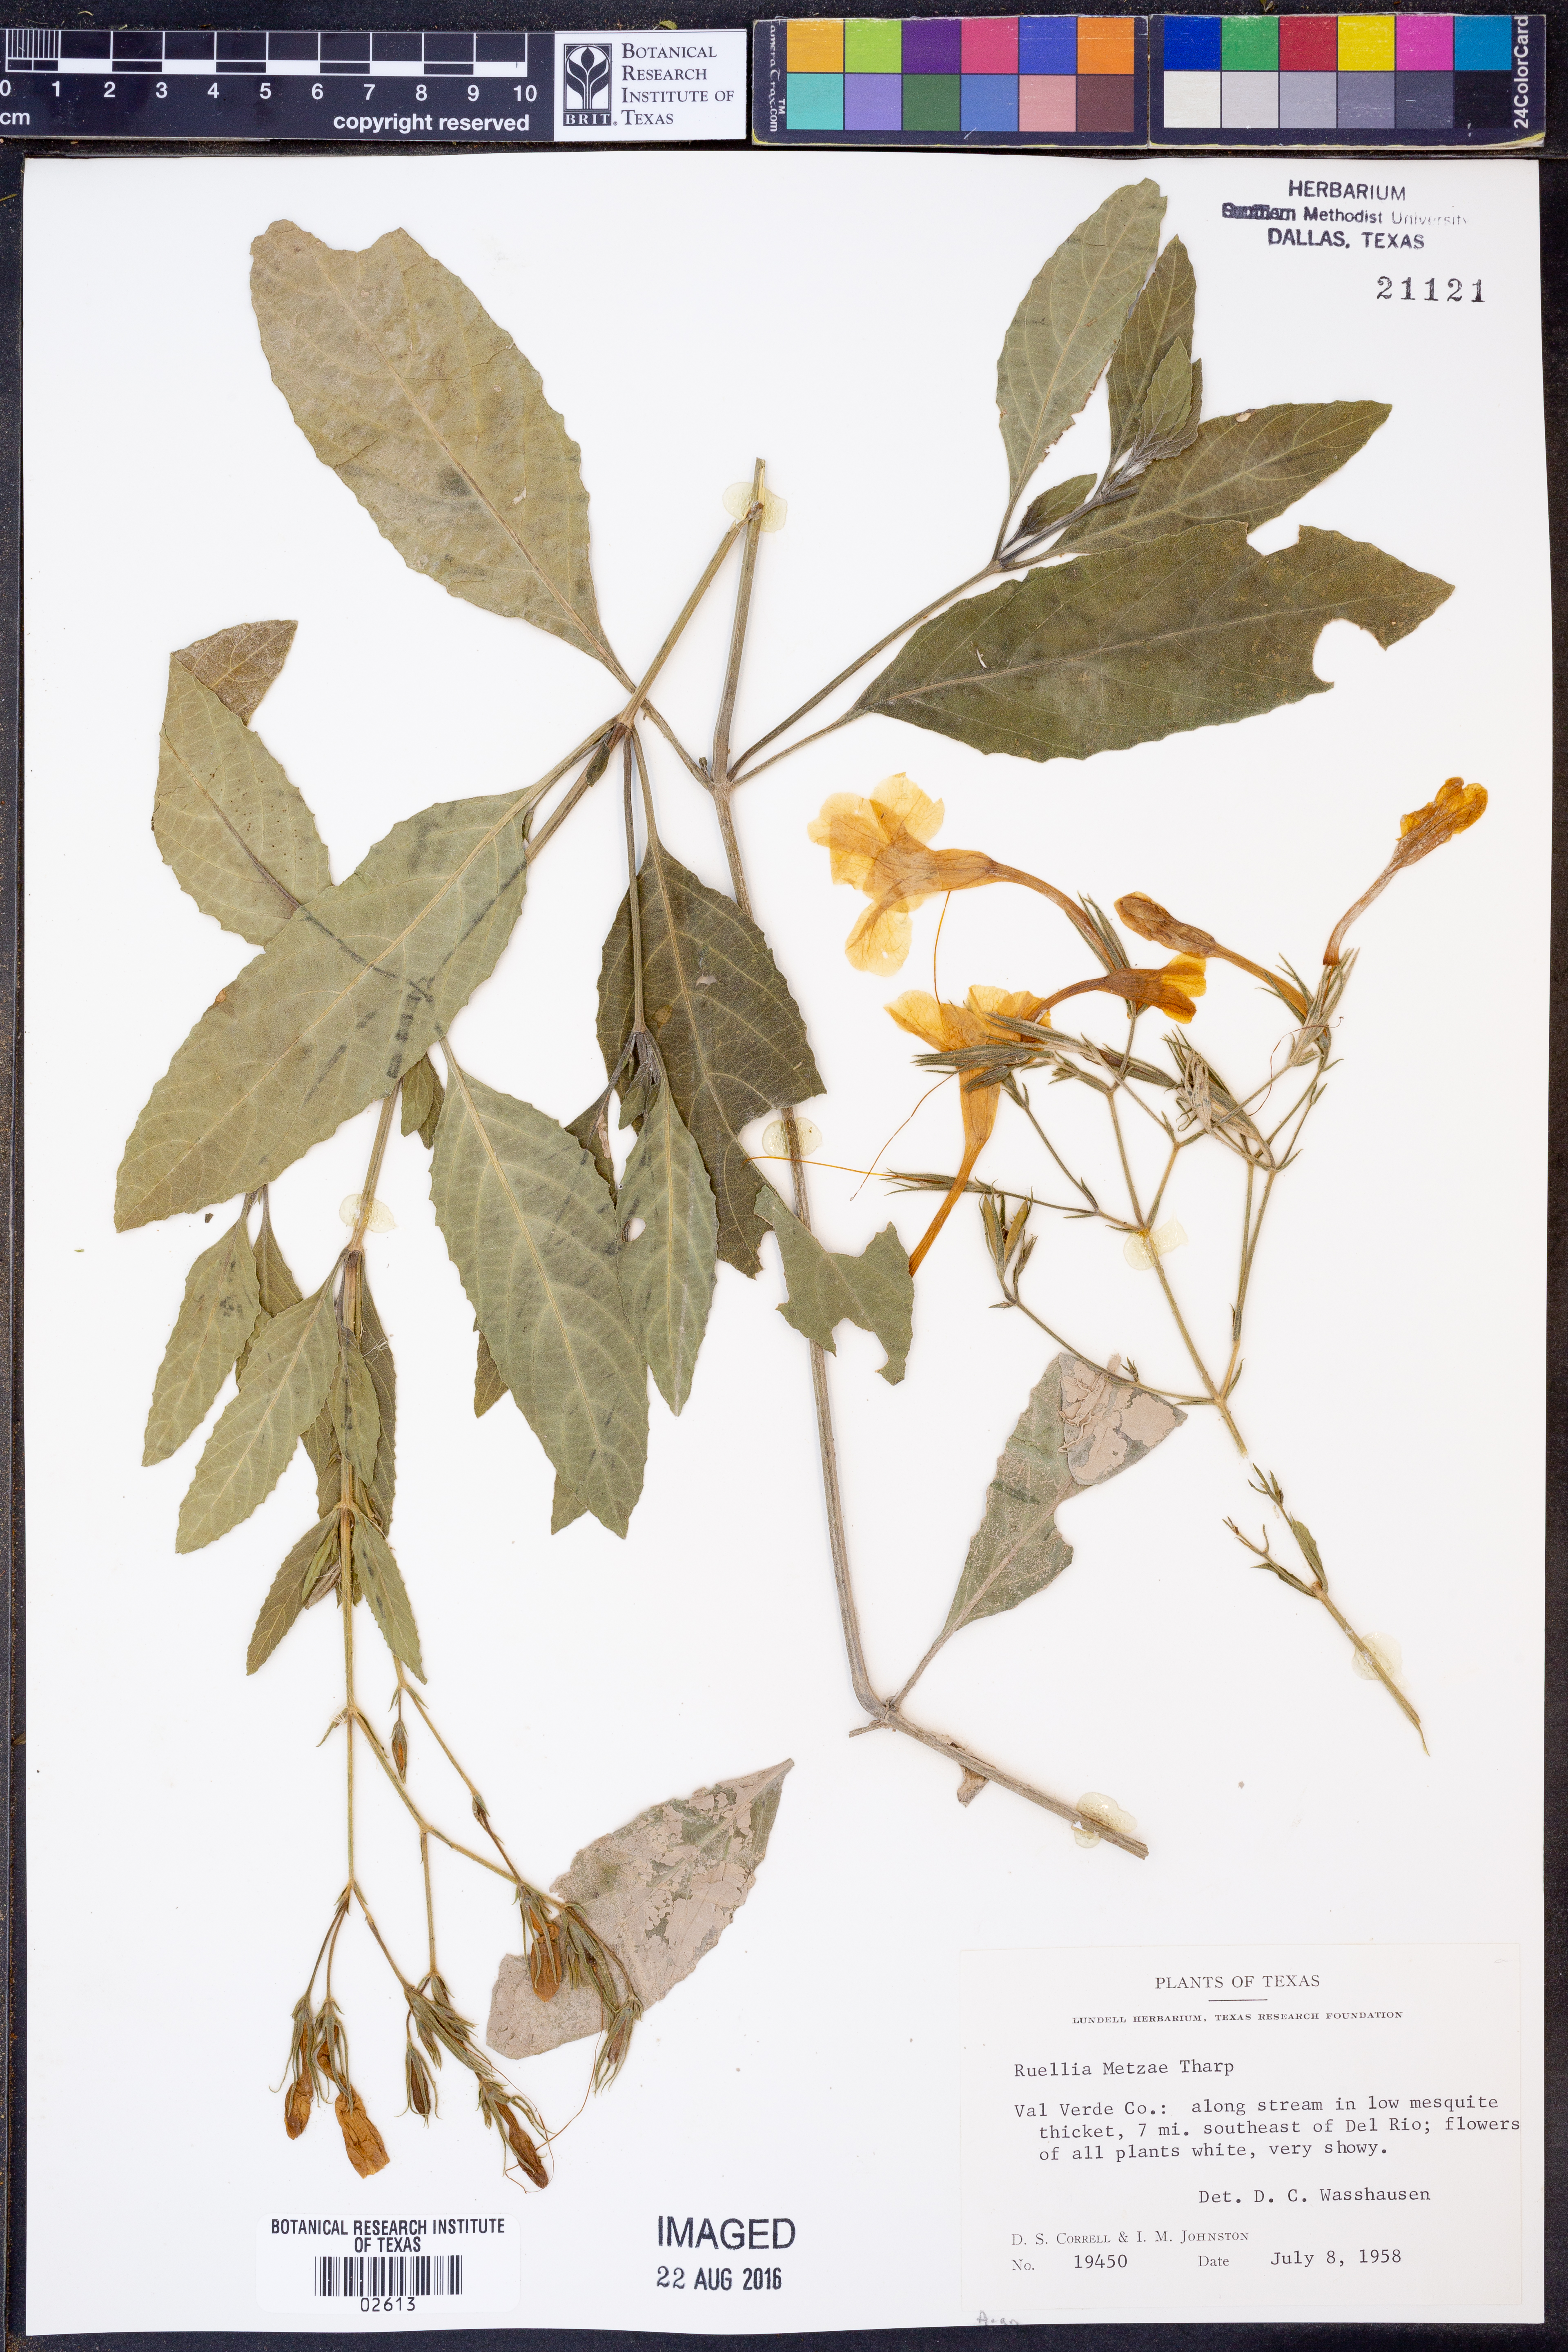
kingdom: Plantae
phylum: Tracheophyta
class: Magnoliopsida
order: Lamiales
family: Acanthaceae
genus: Ruellia
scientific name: Ruellia metzae
